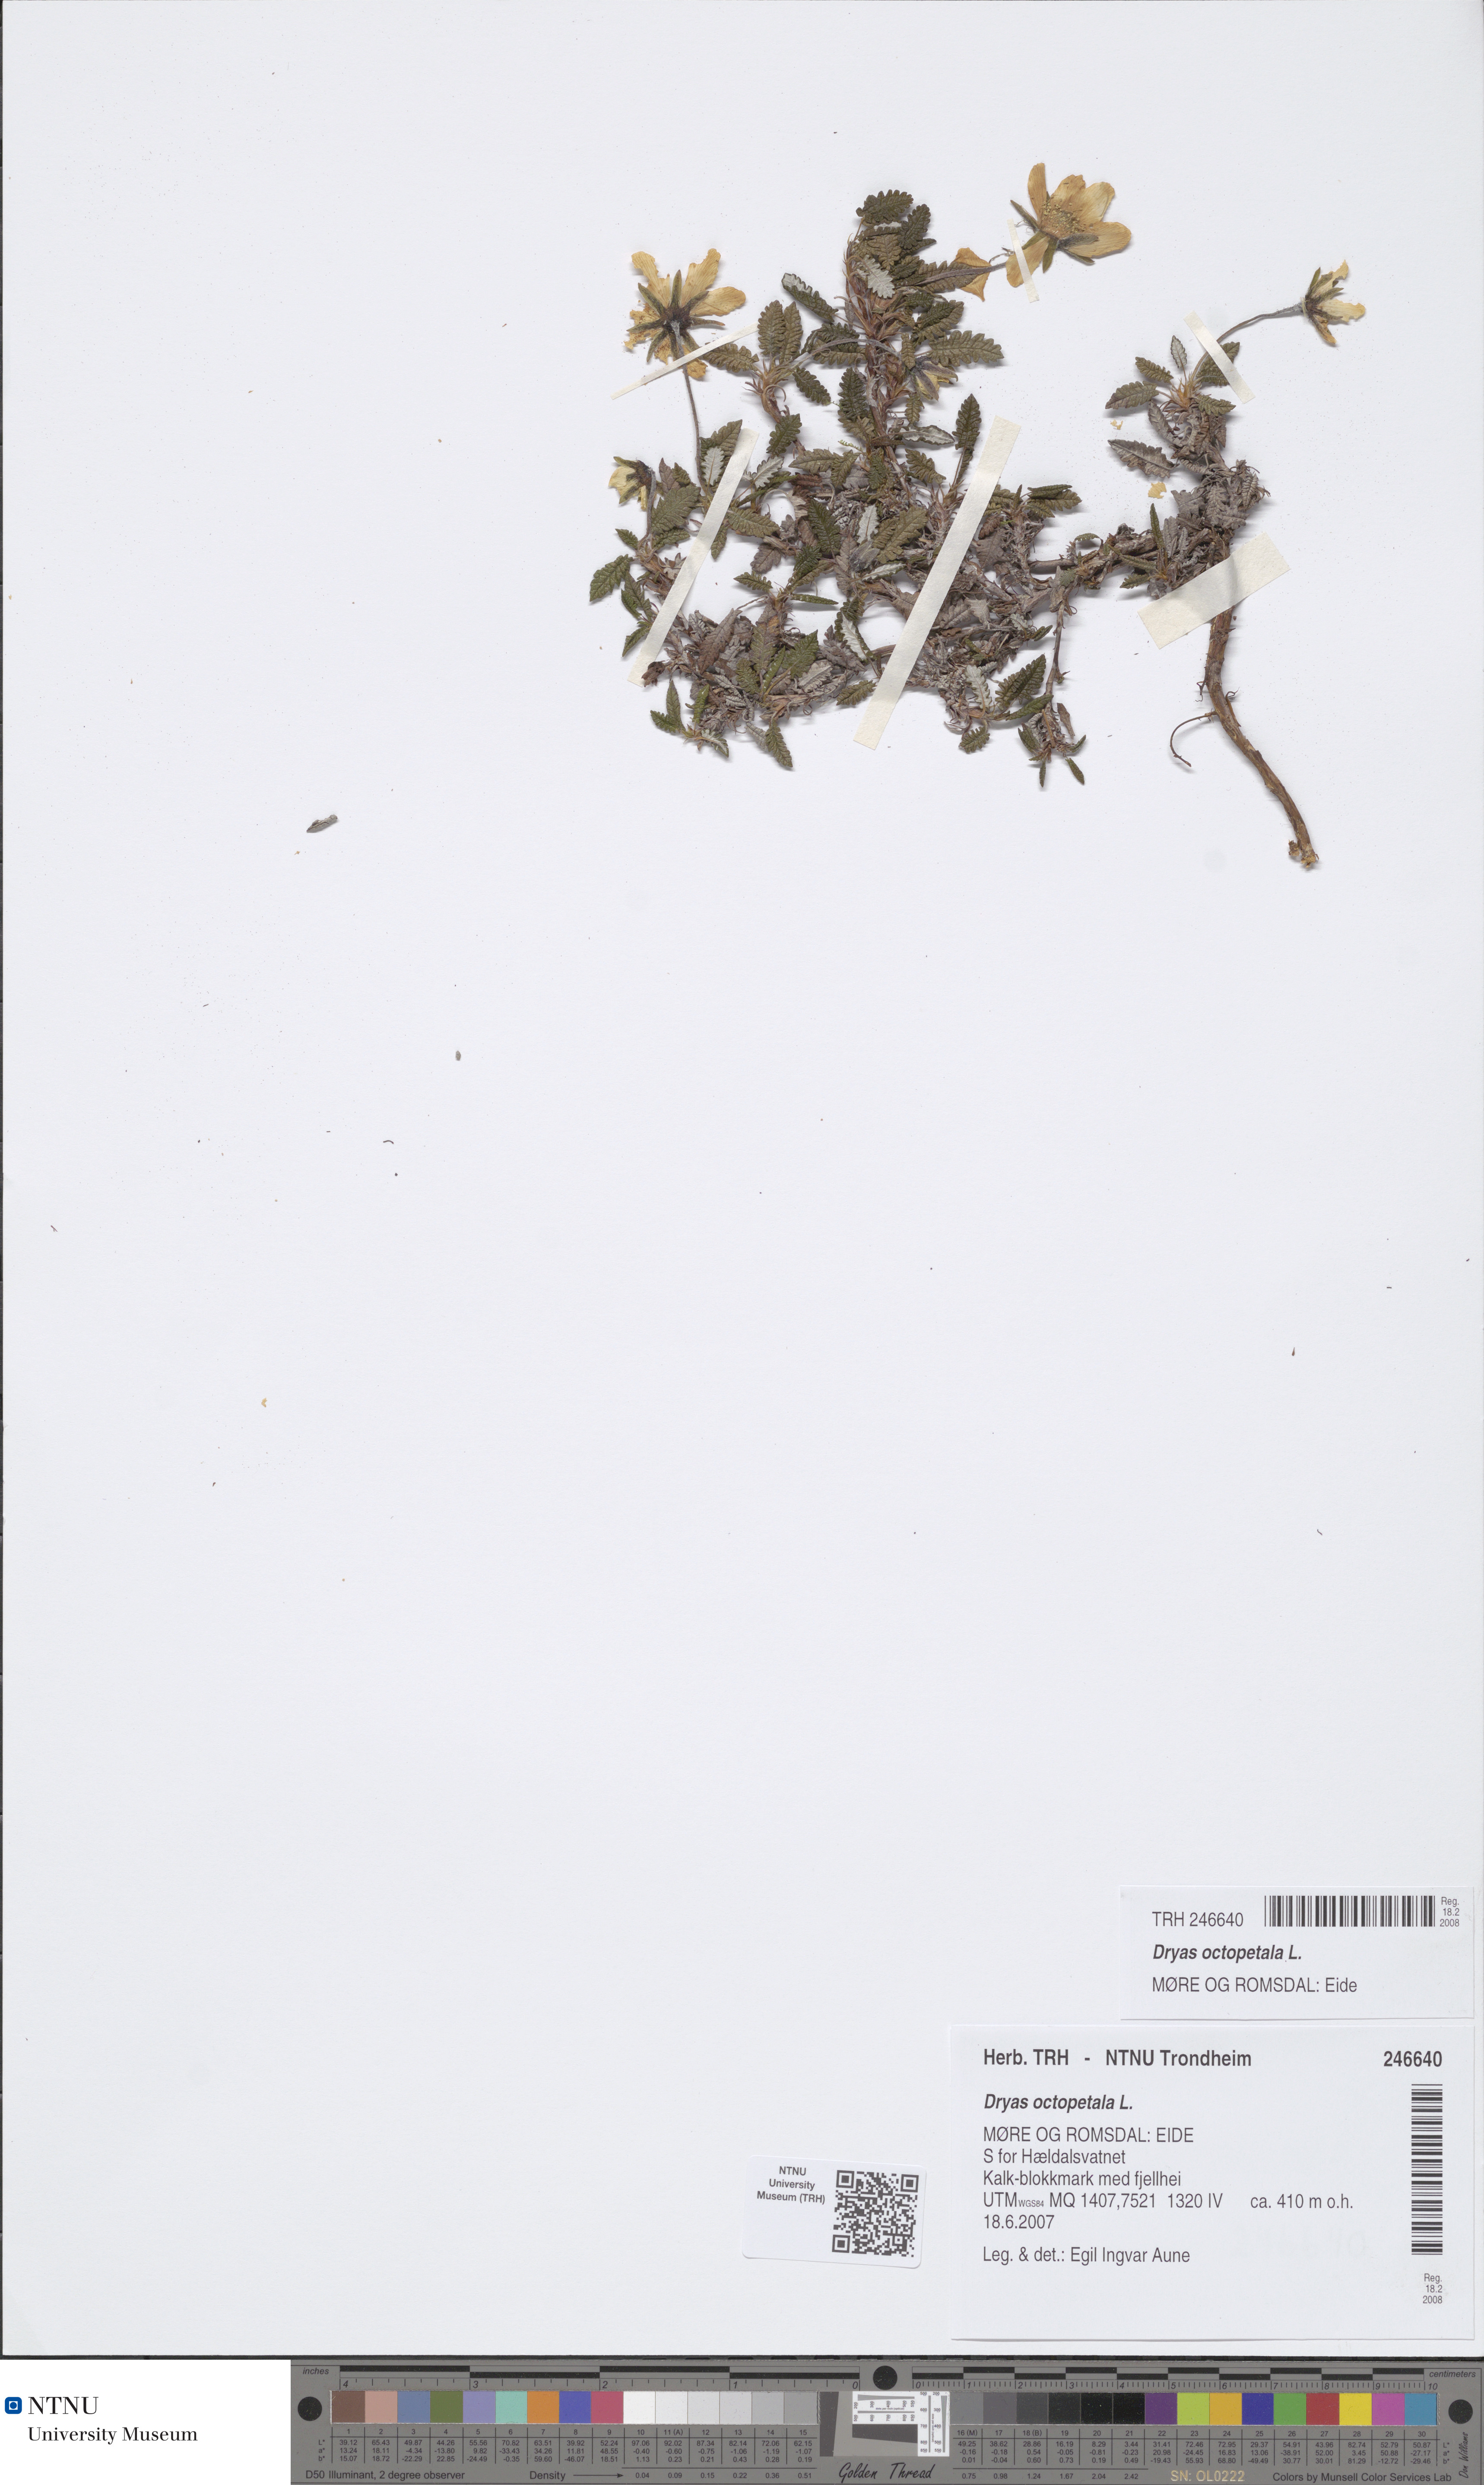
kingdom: Plantae
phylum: Tracheophyta
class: Magnoliopsida
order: Rosales
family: Rosaceae
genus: Dryas
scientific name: Dryas octopetala
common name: Eight-petal mountain-avens
